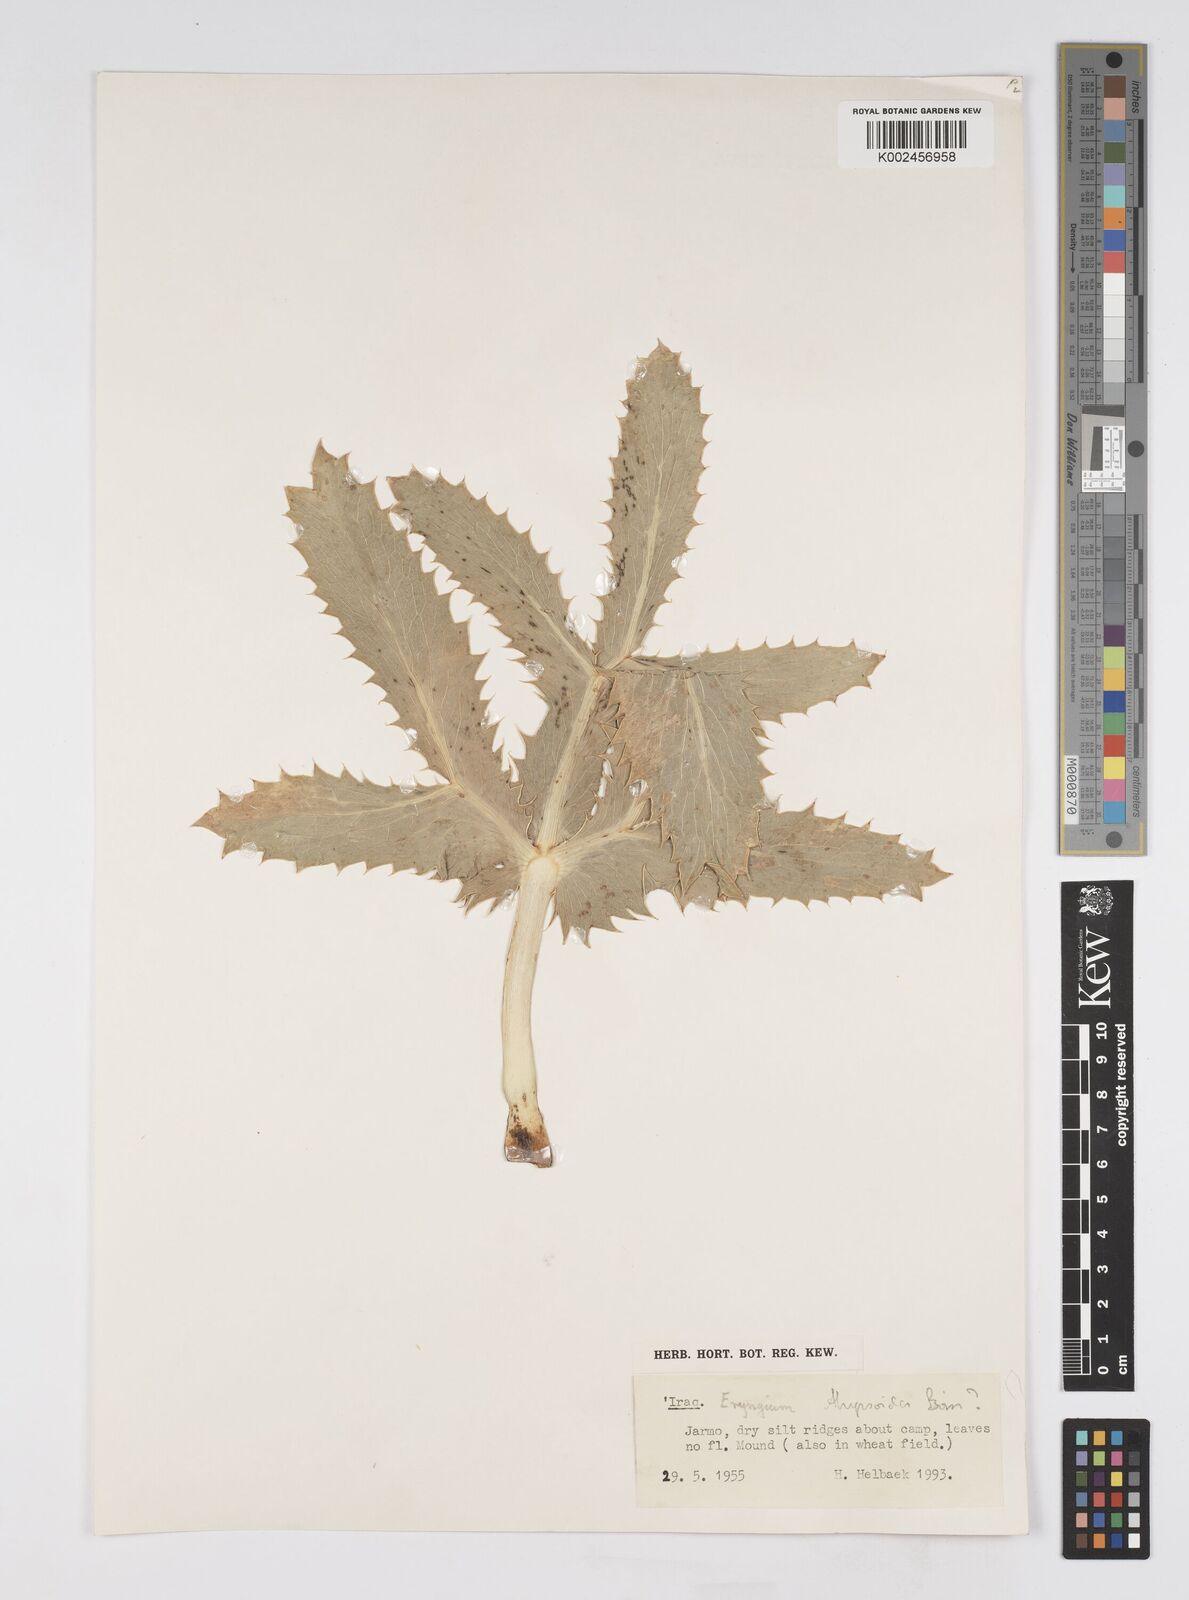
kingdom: Plantae
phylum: Tracheophyta
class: Magnoliopsida
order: Apiales
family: Apiaceae
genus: Eryngium
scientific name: Eryngium
